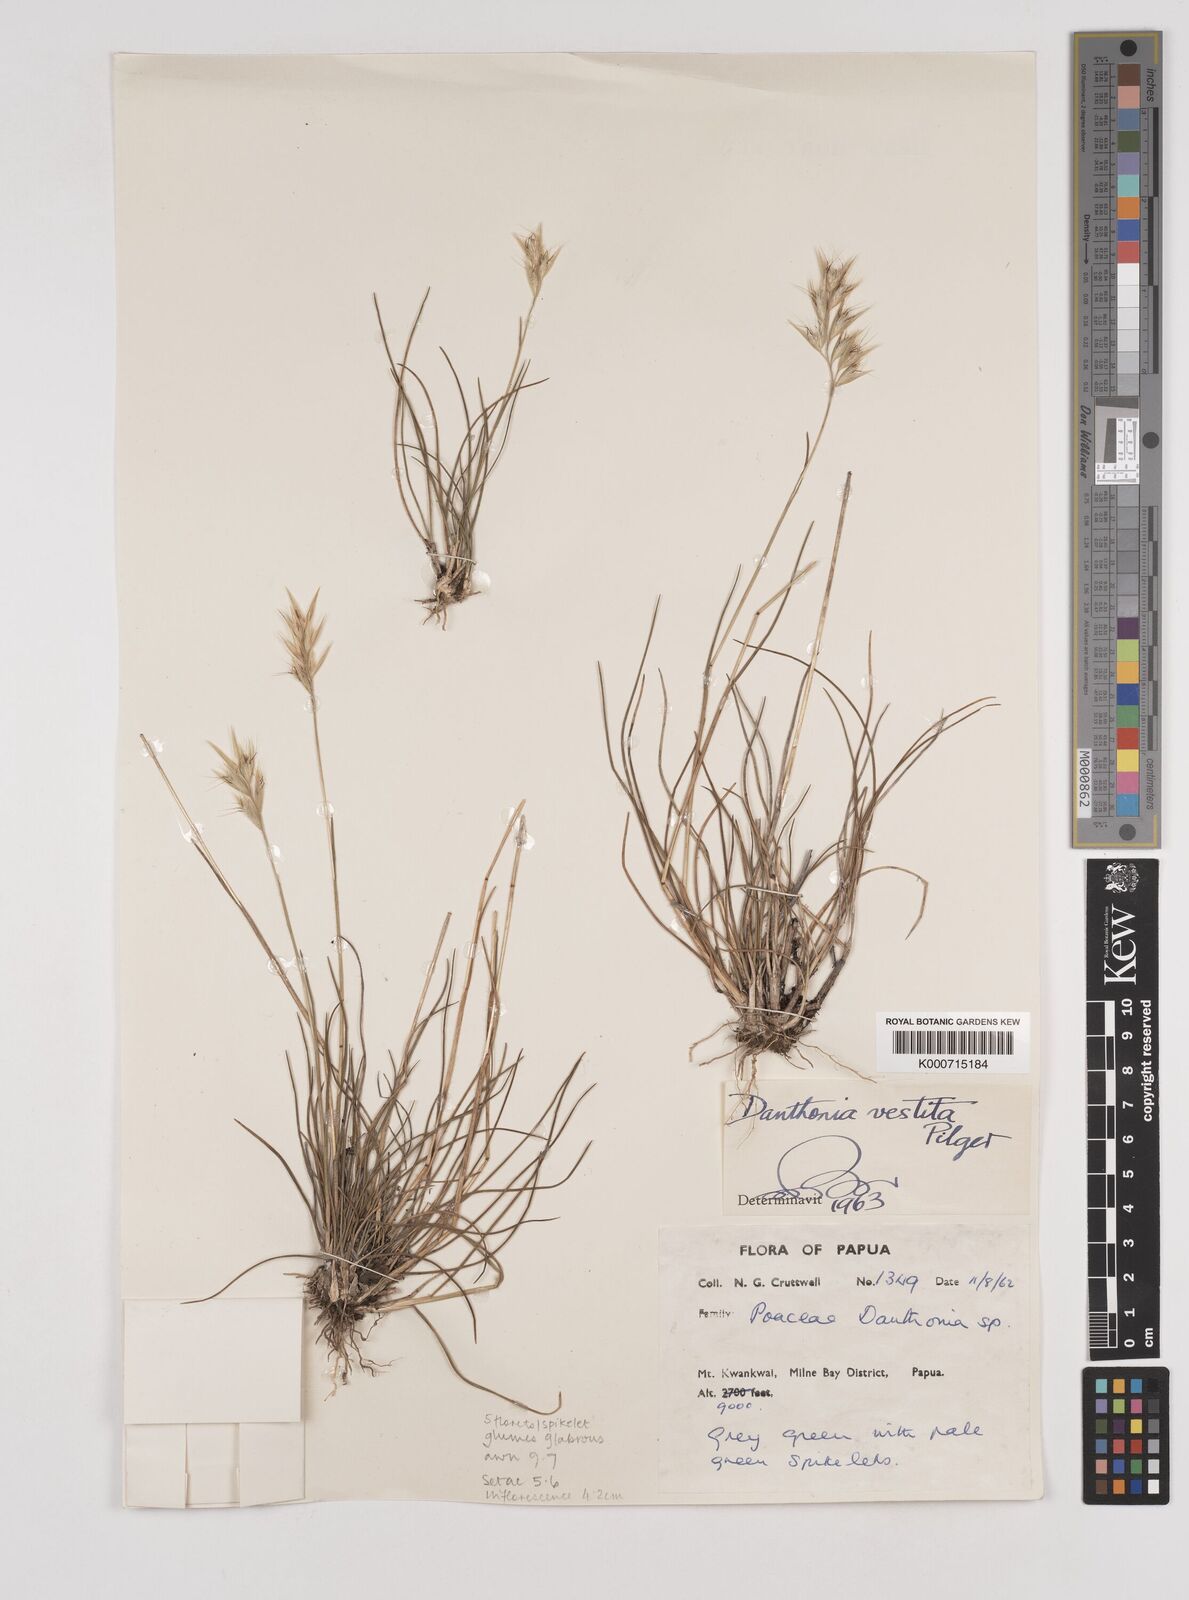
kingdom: Plantae
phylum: Tracheophyta
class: Liliopsida
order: Poales
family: Poaceae
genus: Rytidosperma
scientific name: Rytidosperma vestitum
